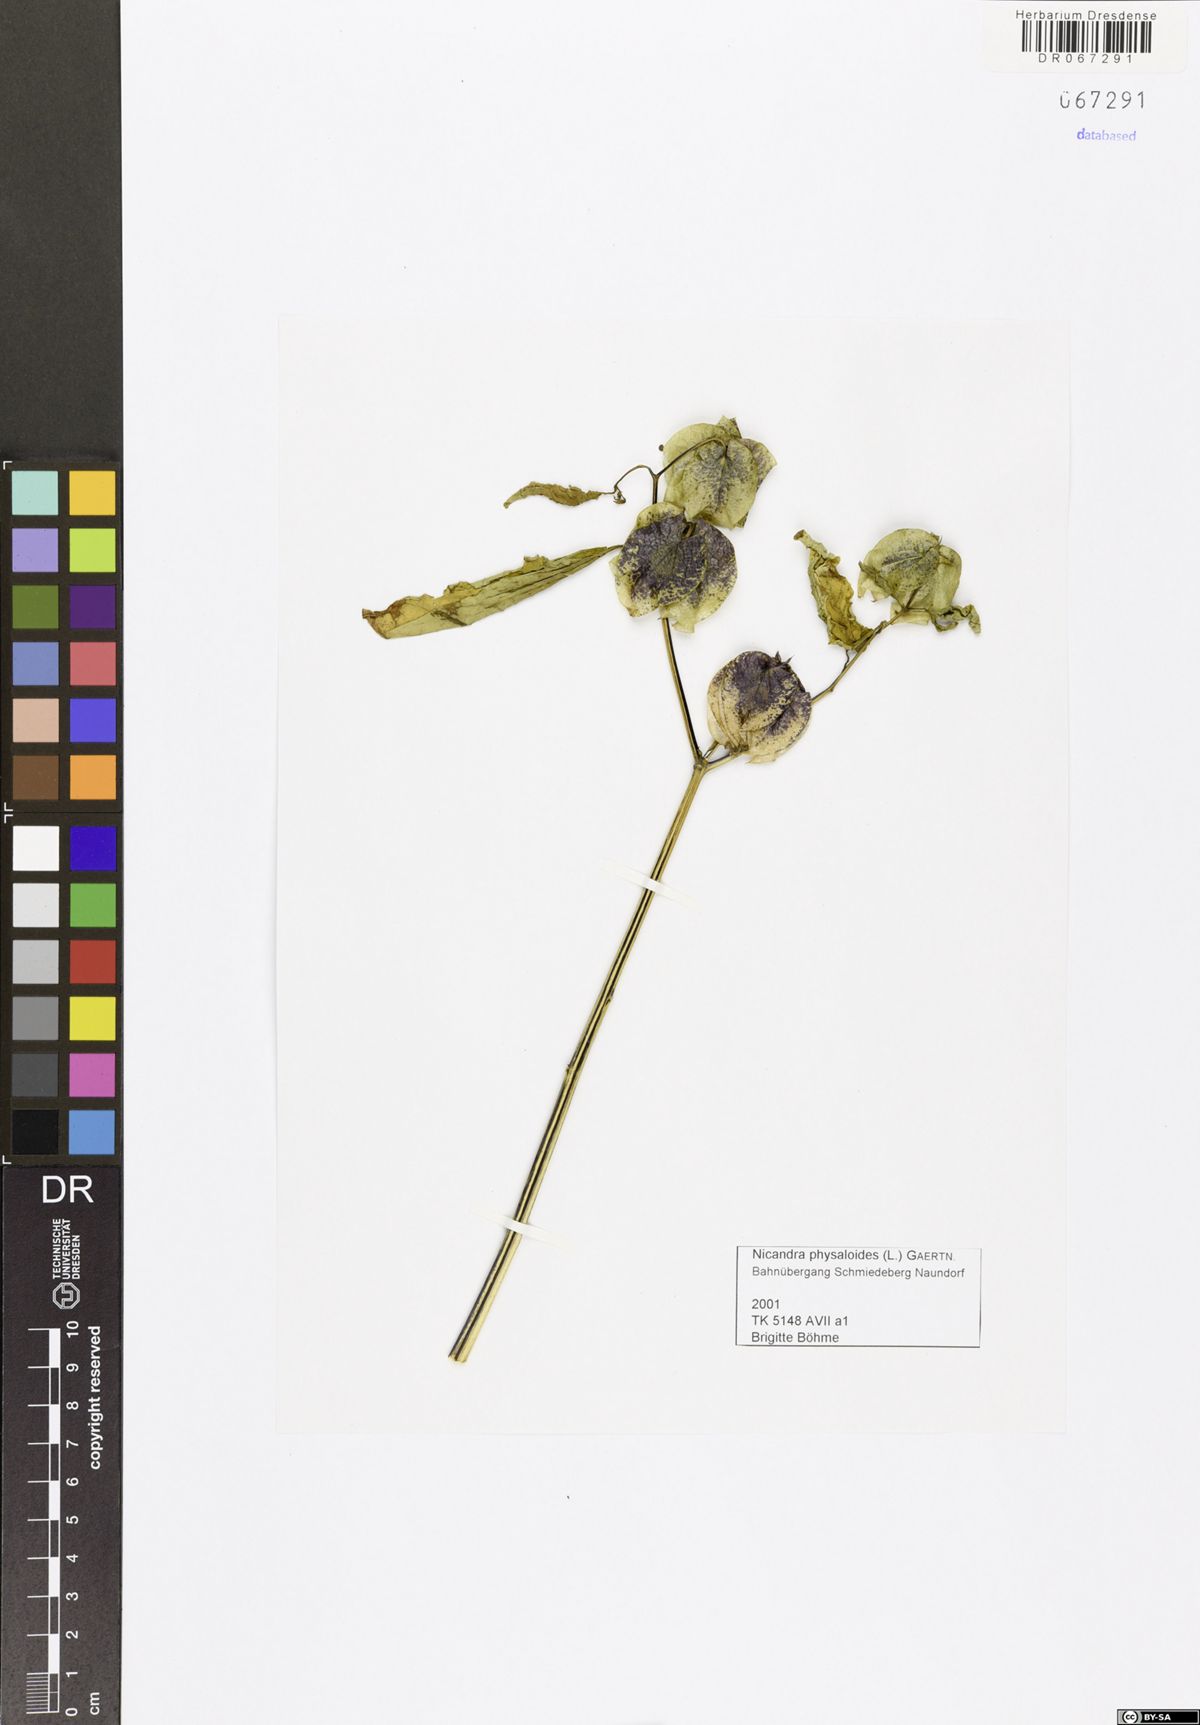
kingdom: Plantae
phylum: Tracheophyta
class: Magnoliopsida
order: Solanales
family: Solanaceae
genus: Nicandra
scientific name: Nicandra physalodes
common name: Apple-of-peru
